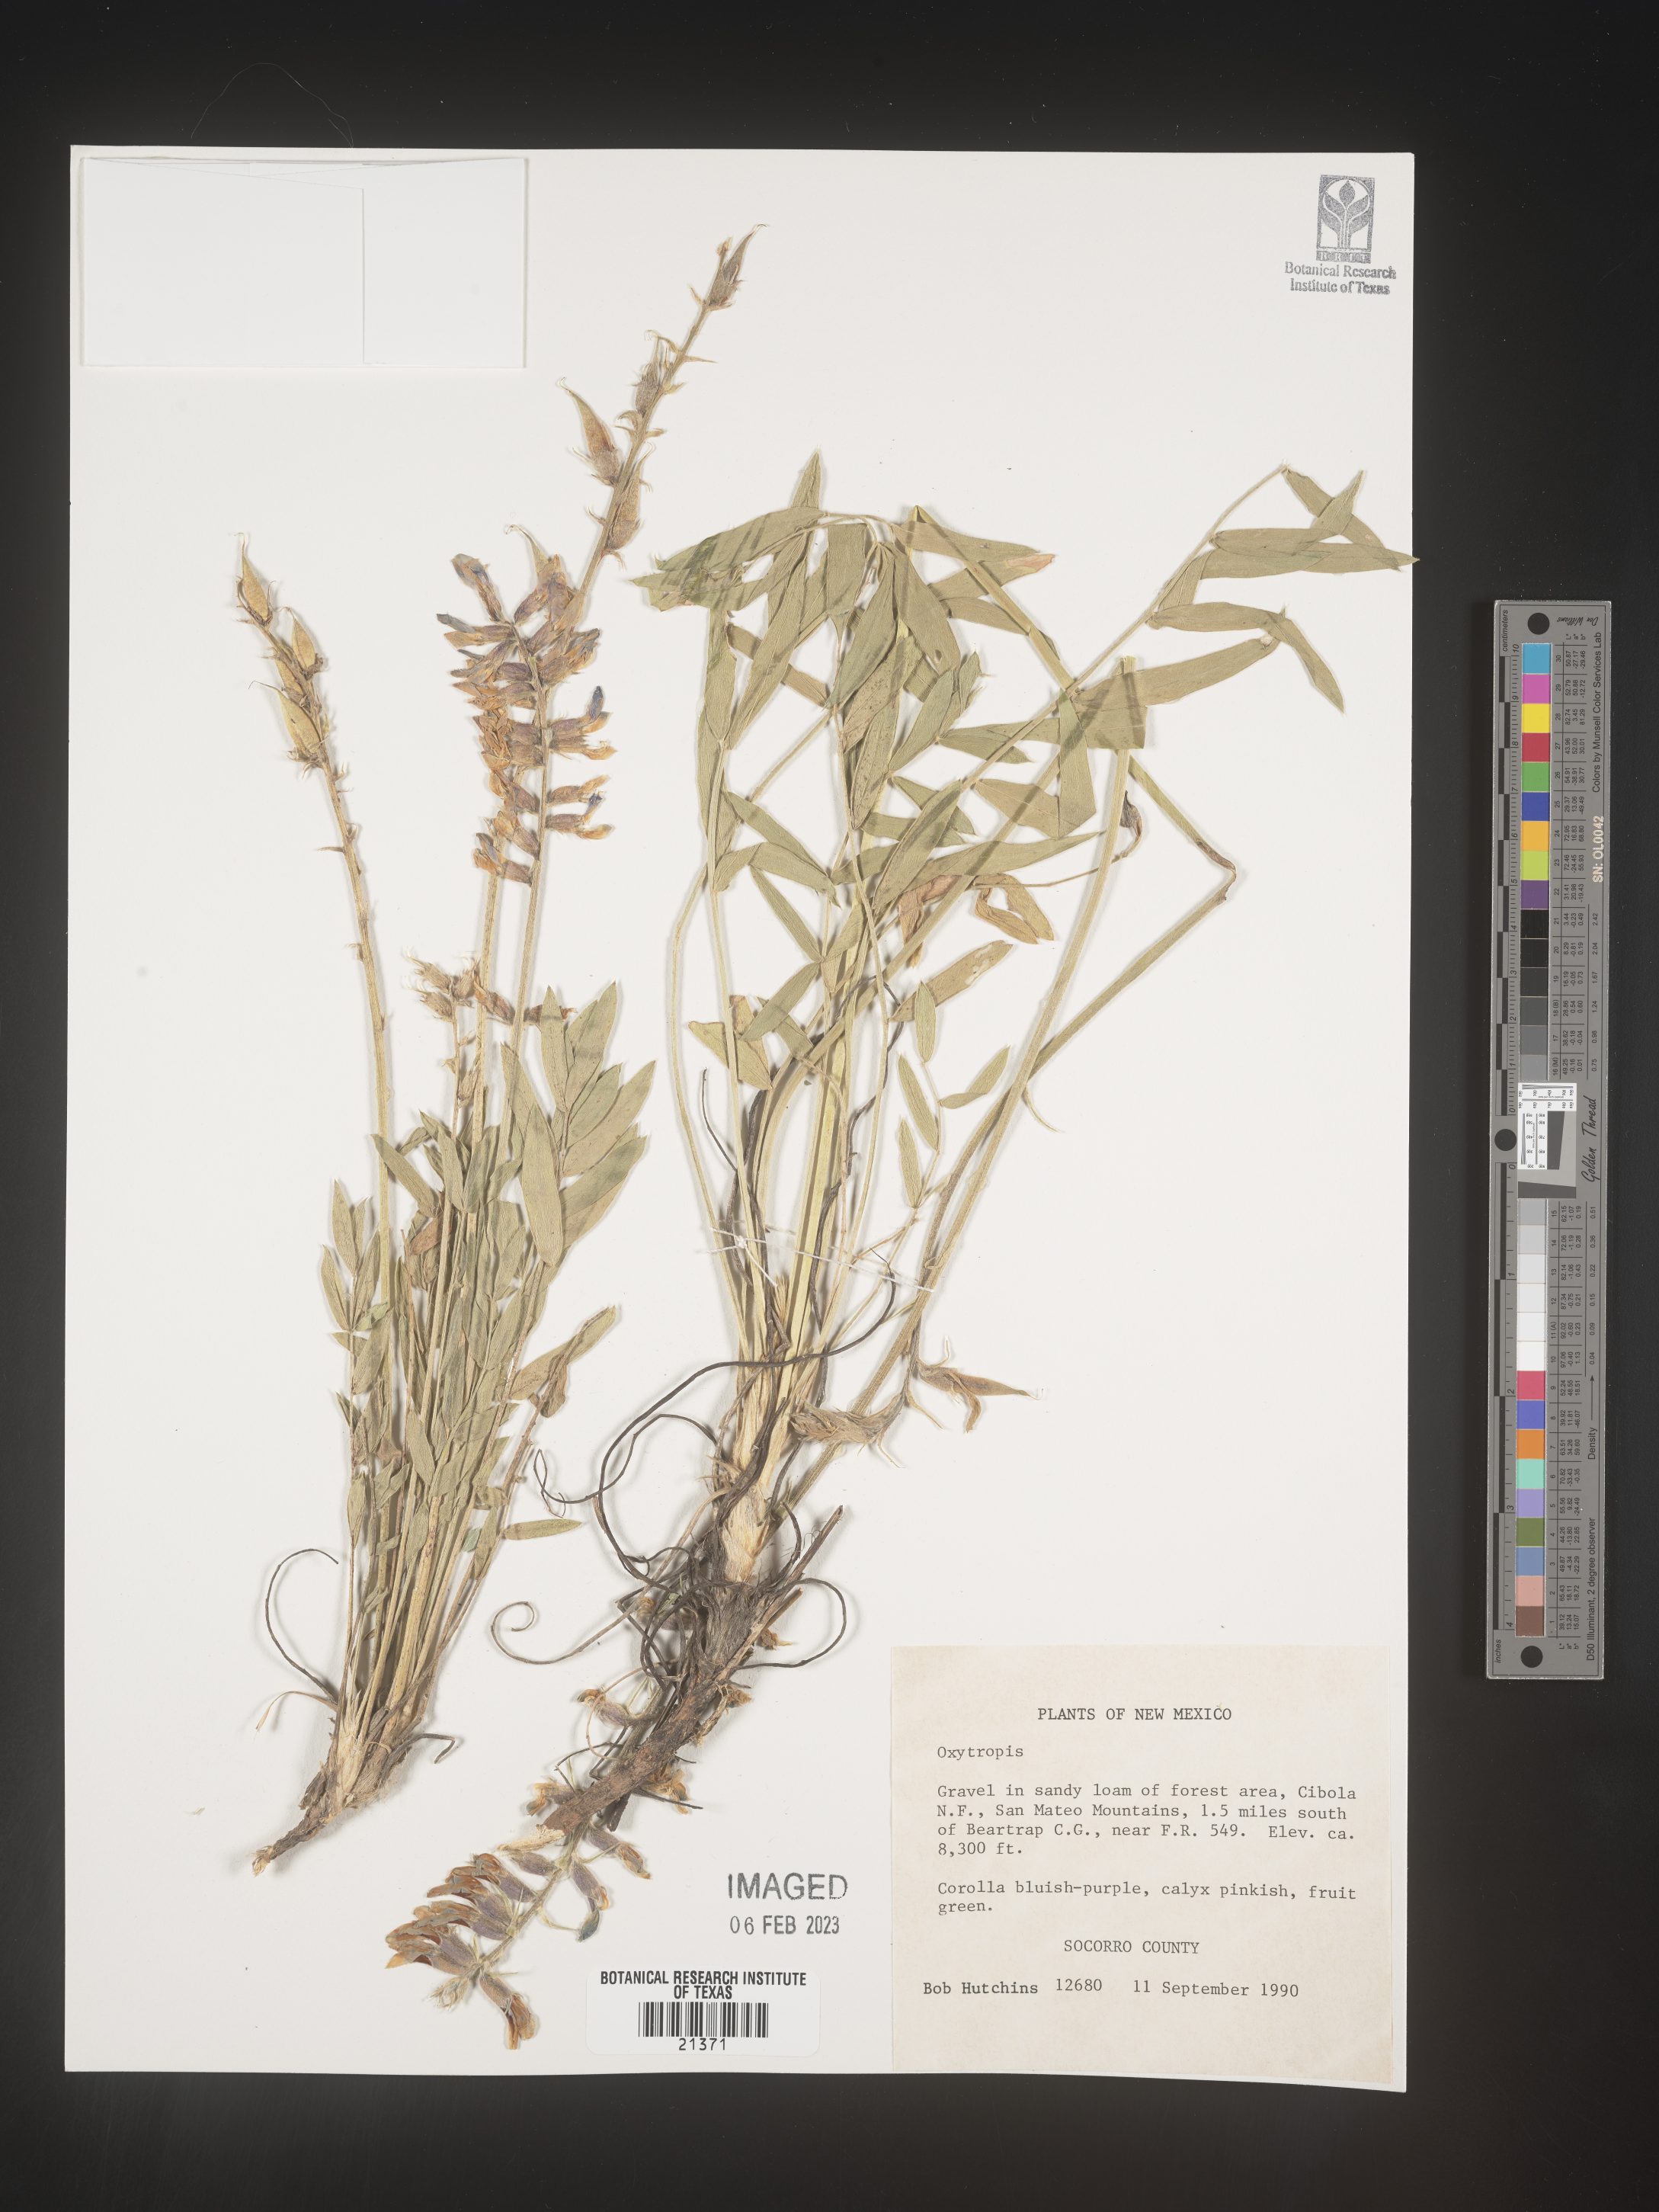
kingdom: Plantae
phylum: Tracheophyta
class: Magnoliopsida
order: Fabales
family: Fabaceae
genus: Oxytropis
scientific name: Oxytropis
